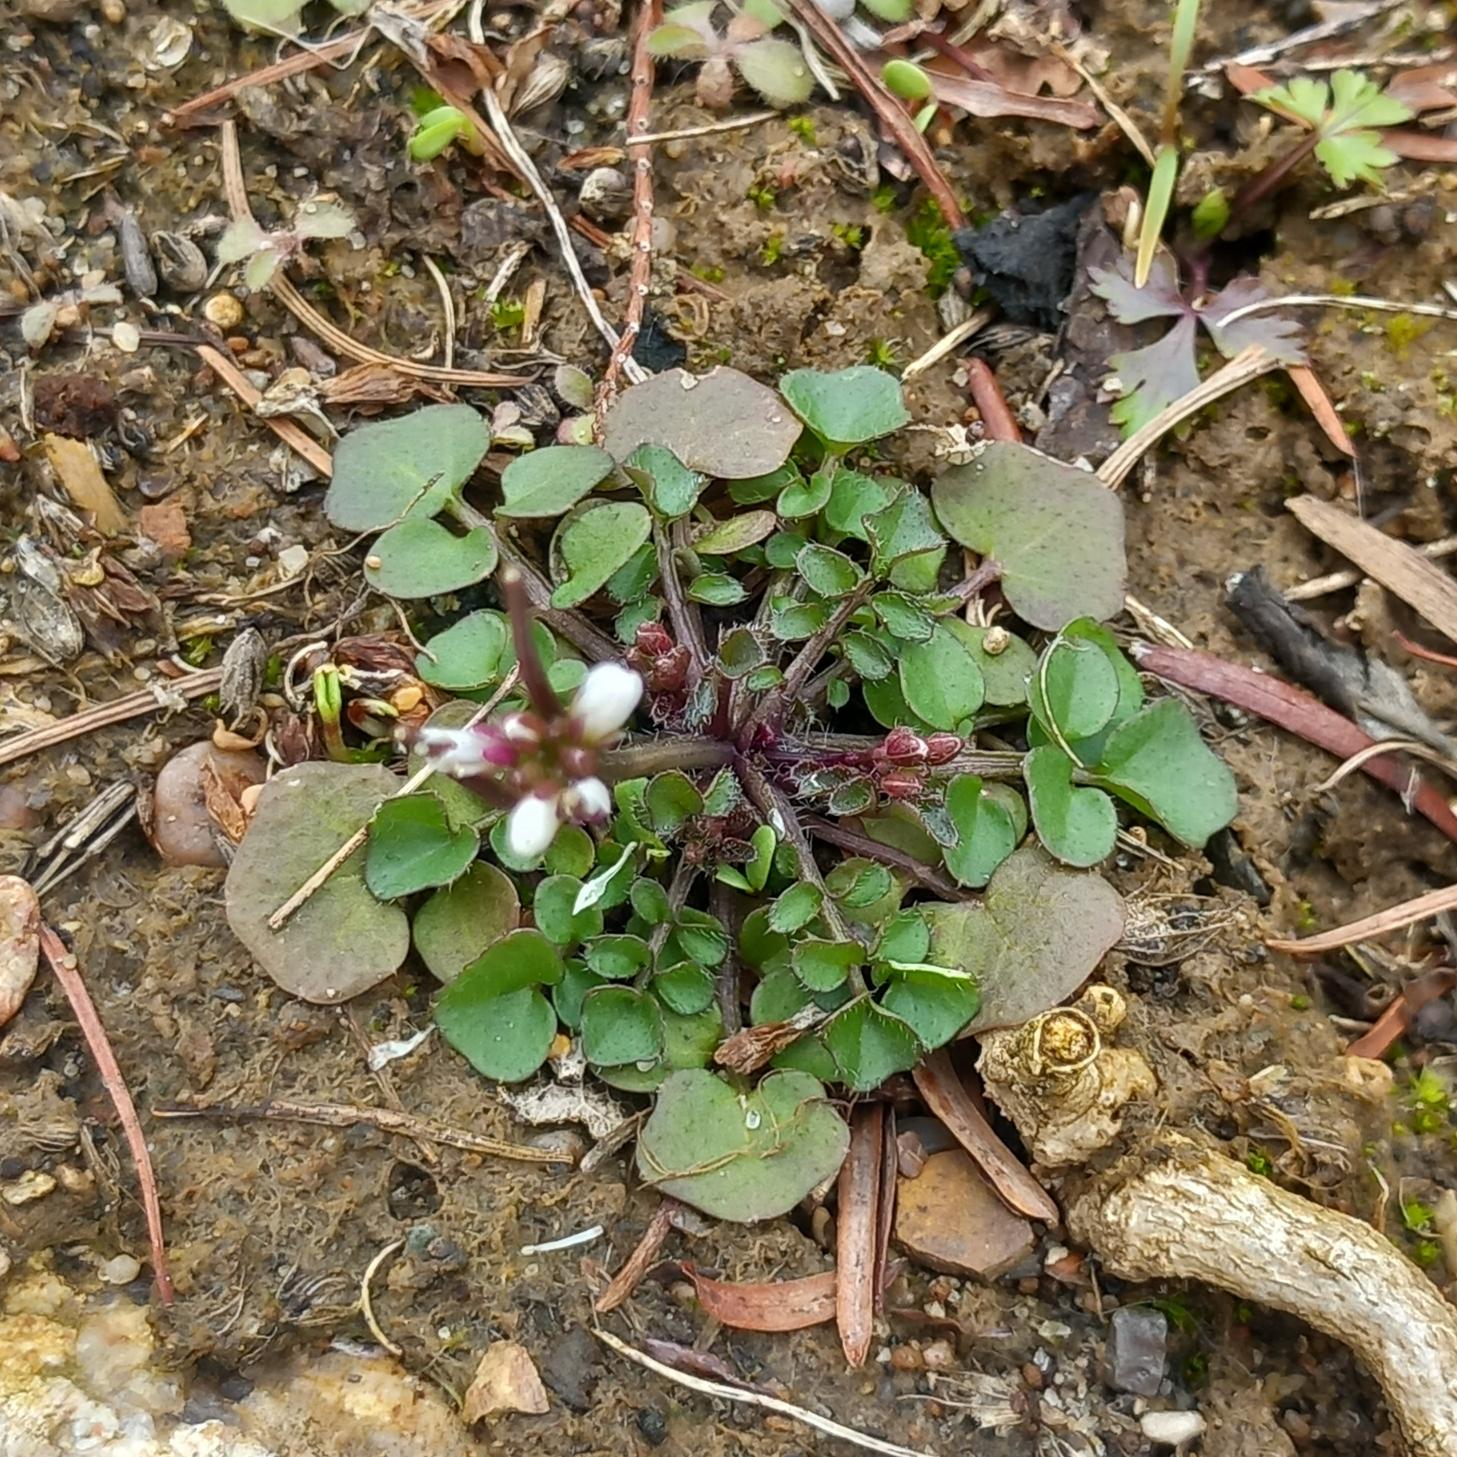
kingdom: Plantae
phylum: Tracheophyta
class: Magnoliopsida
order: Brassicales
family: Brassicaceae
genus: Cardamine
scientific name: Cardamine hirsuta
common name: Roset-springklap
